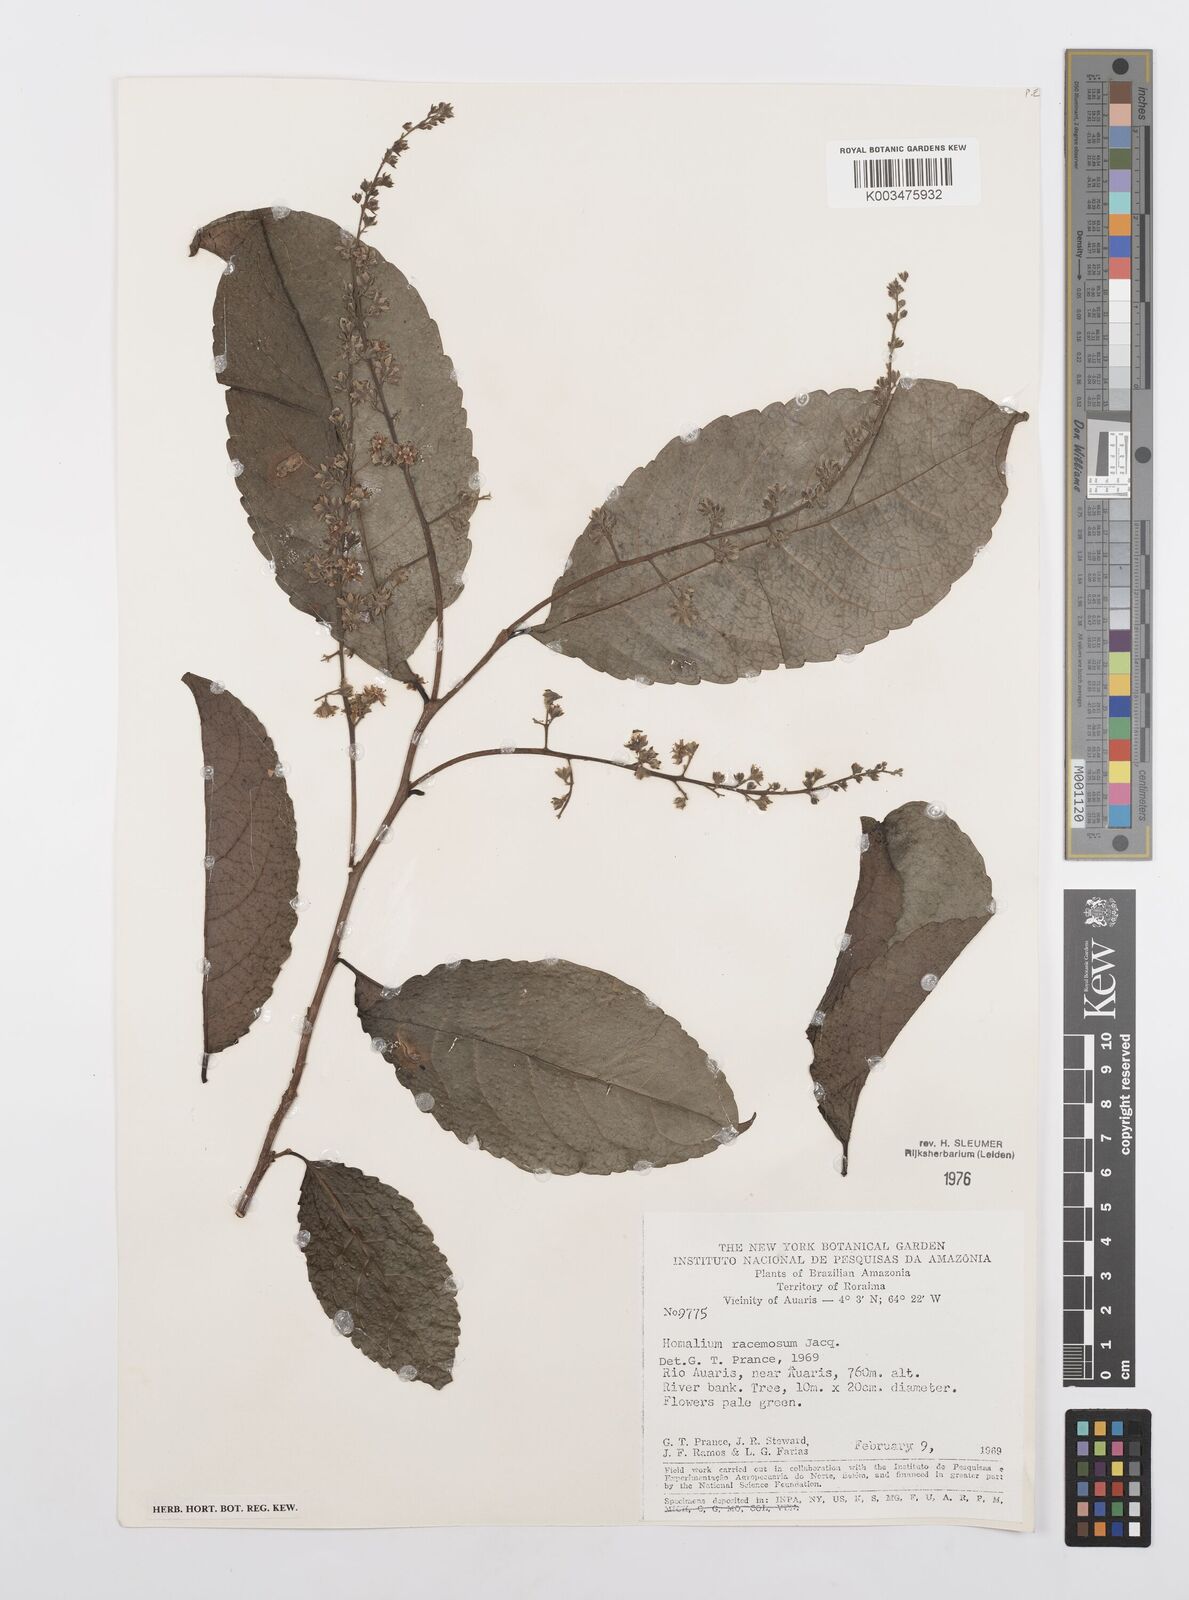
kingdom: Plantae
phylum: Tracheophyta
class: Magnoliopsida
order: Malpighiales
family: Salicaceae
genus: Homalium
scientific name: Homalium racemosum
